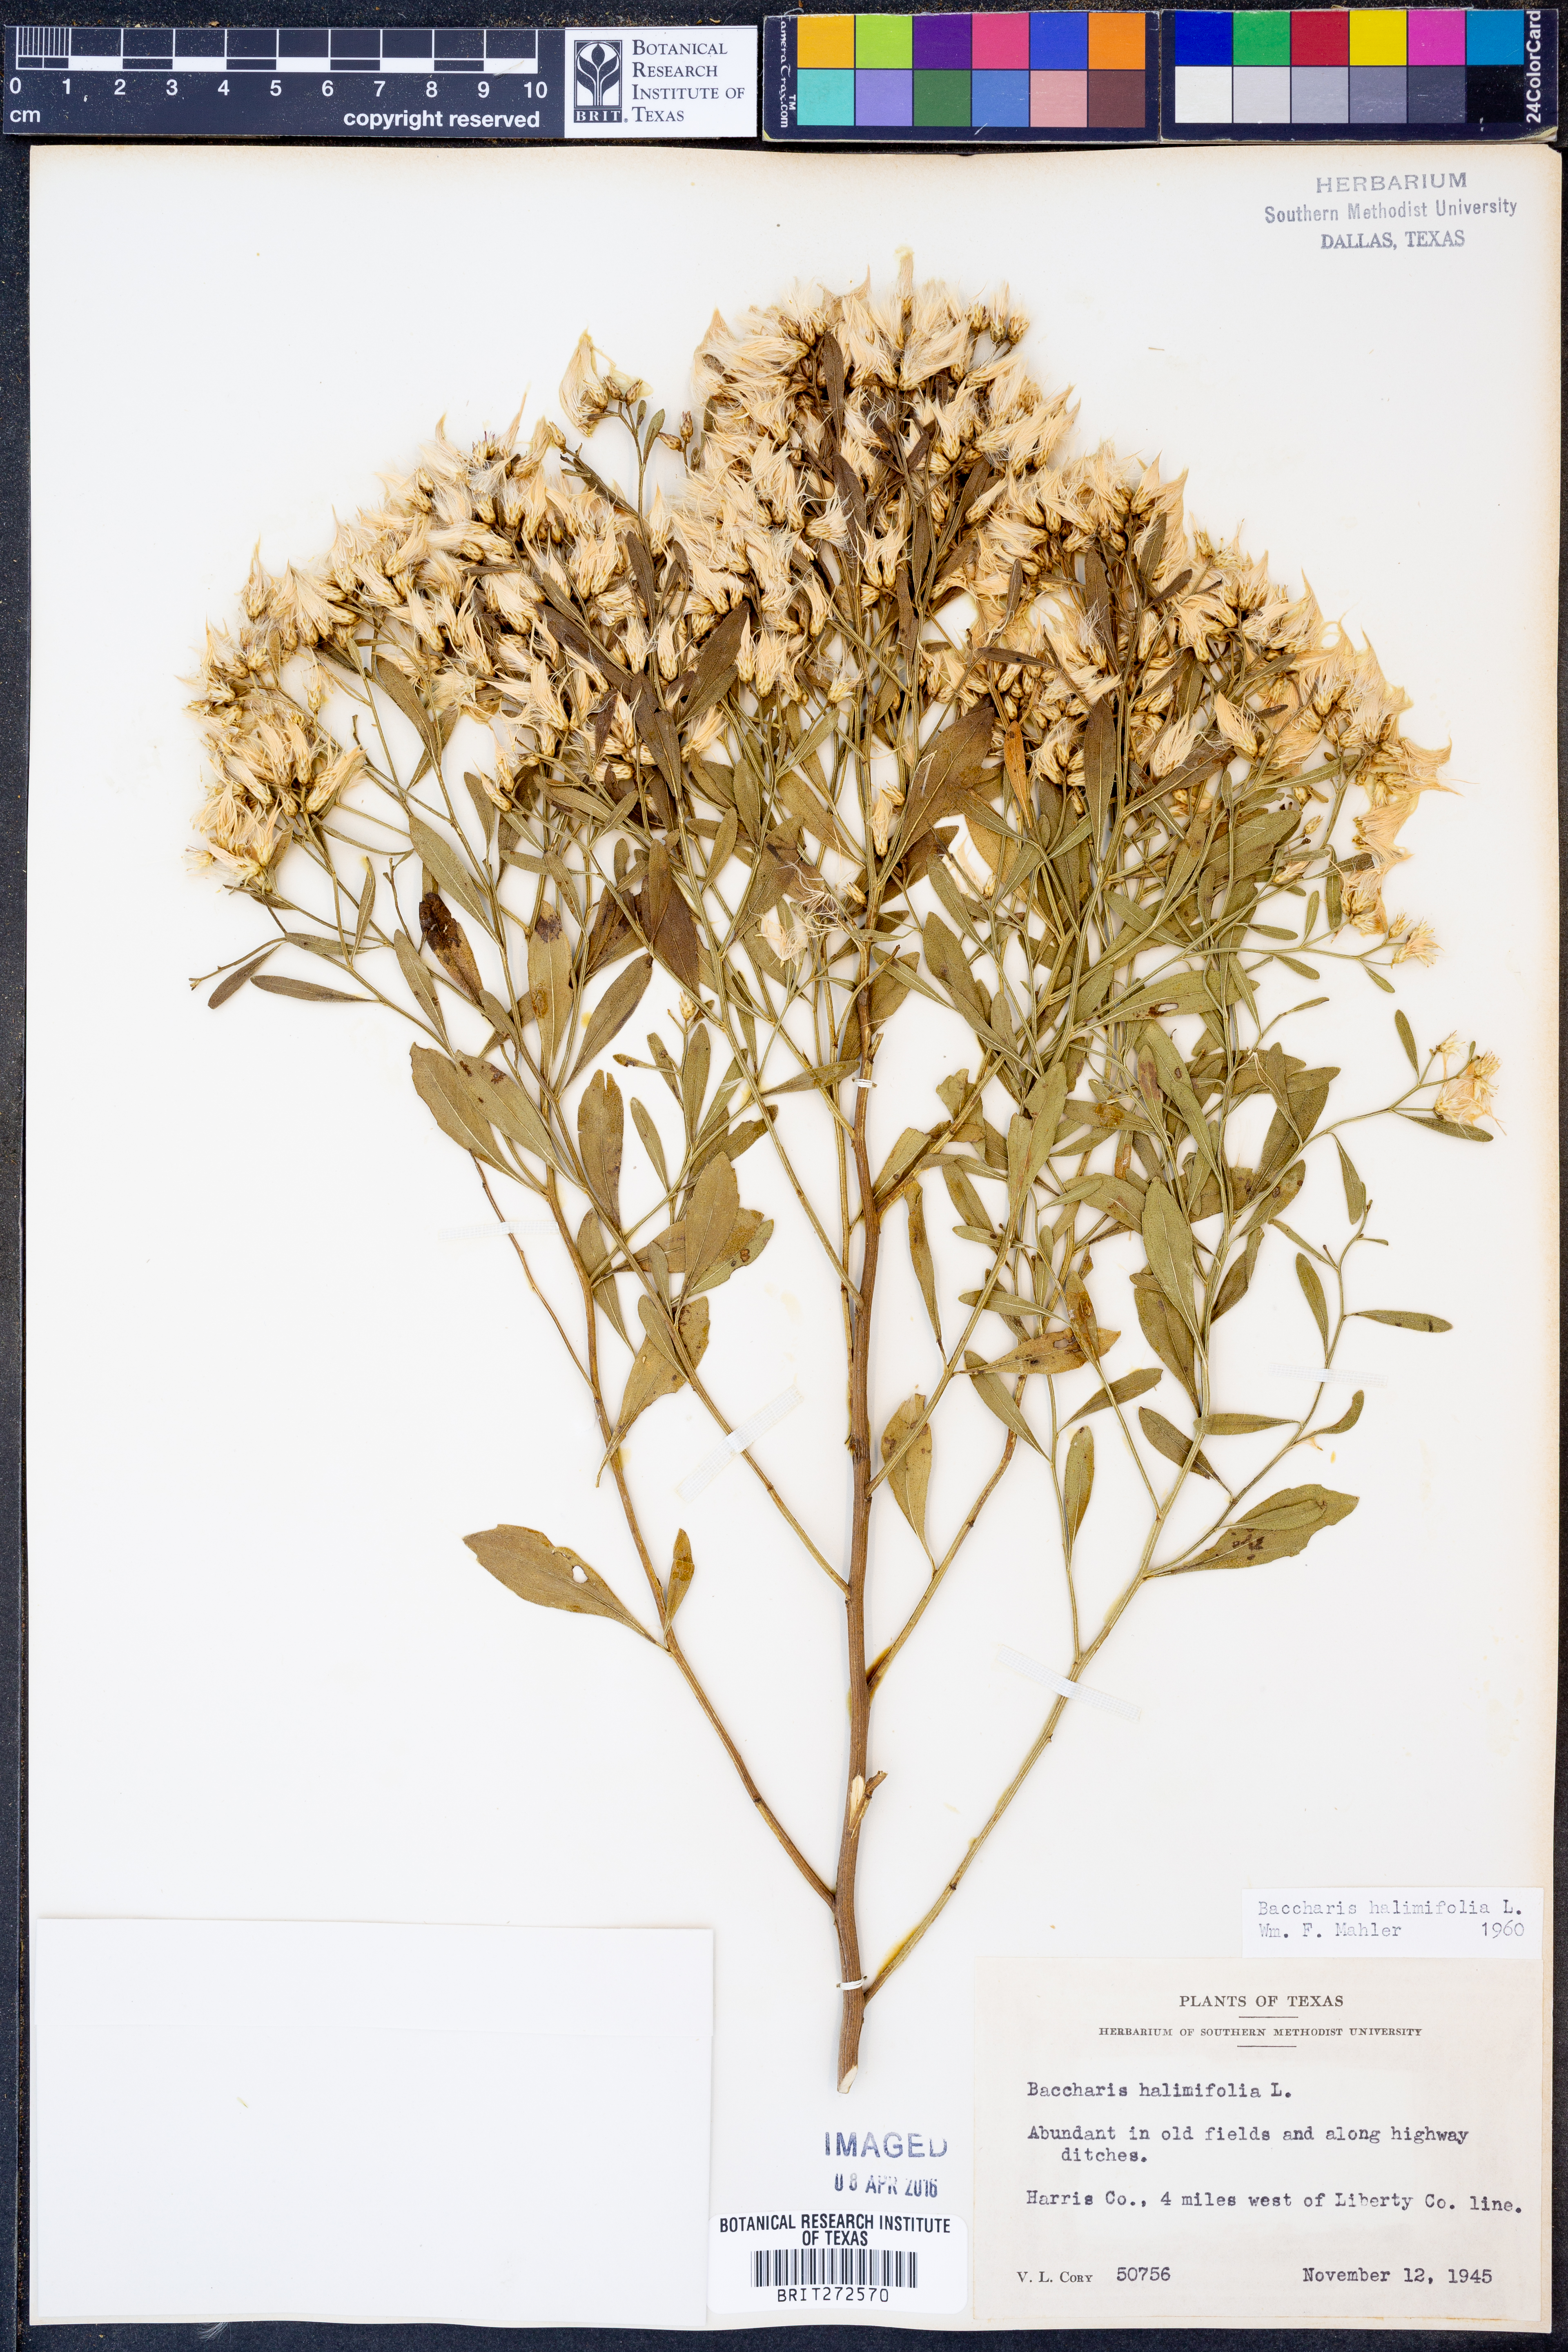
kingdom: Plantae
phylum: Tracheophyta
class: Magnoliopsida
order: Asterales
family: Asteraceae
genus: Nidorella
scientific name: Nidorella ivifolia
